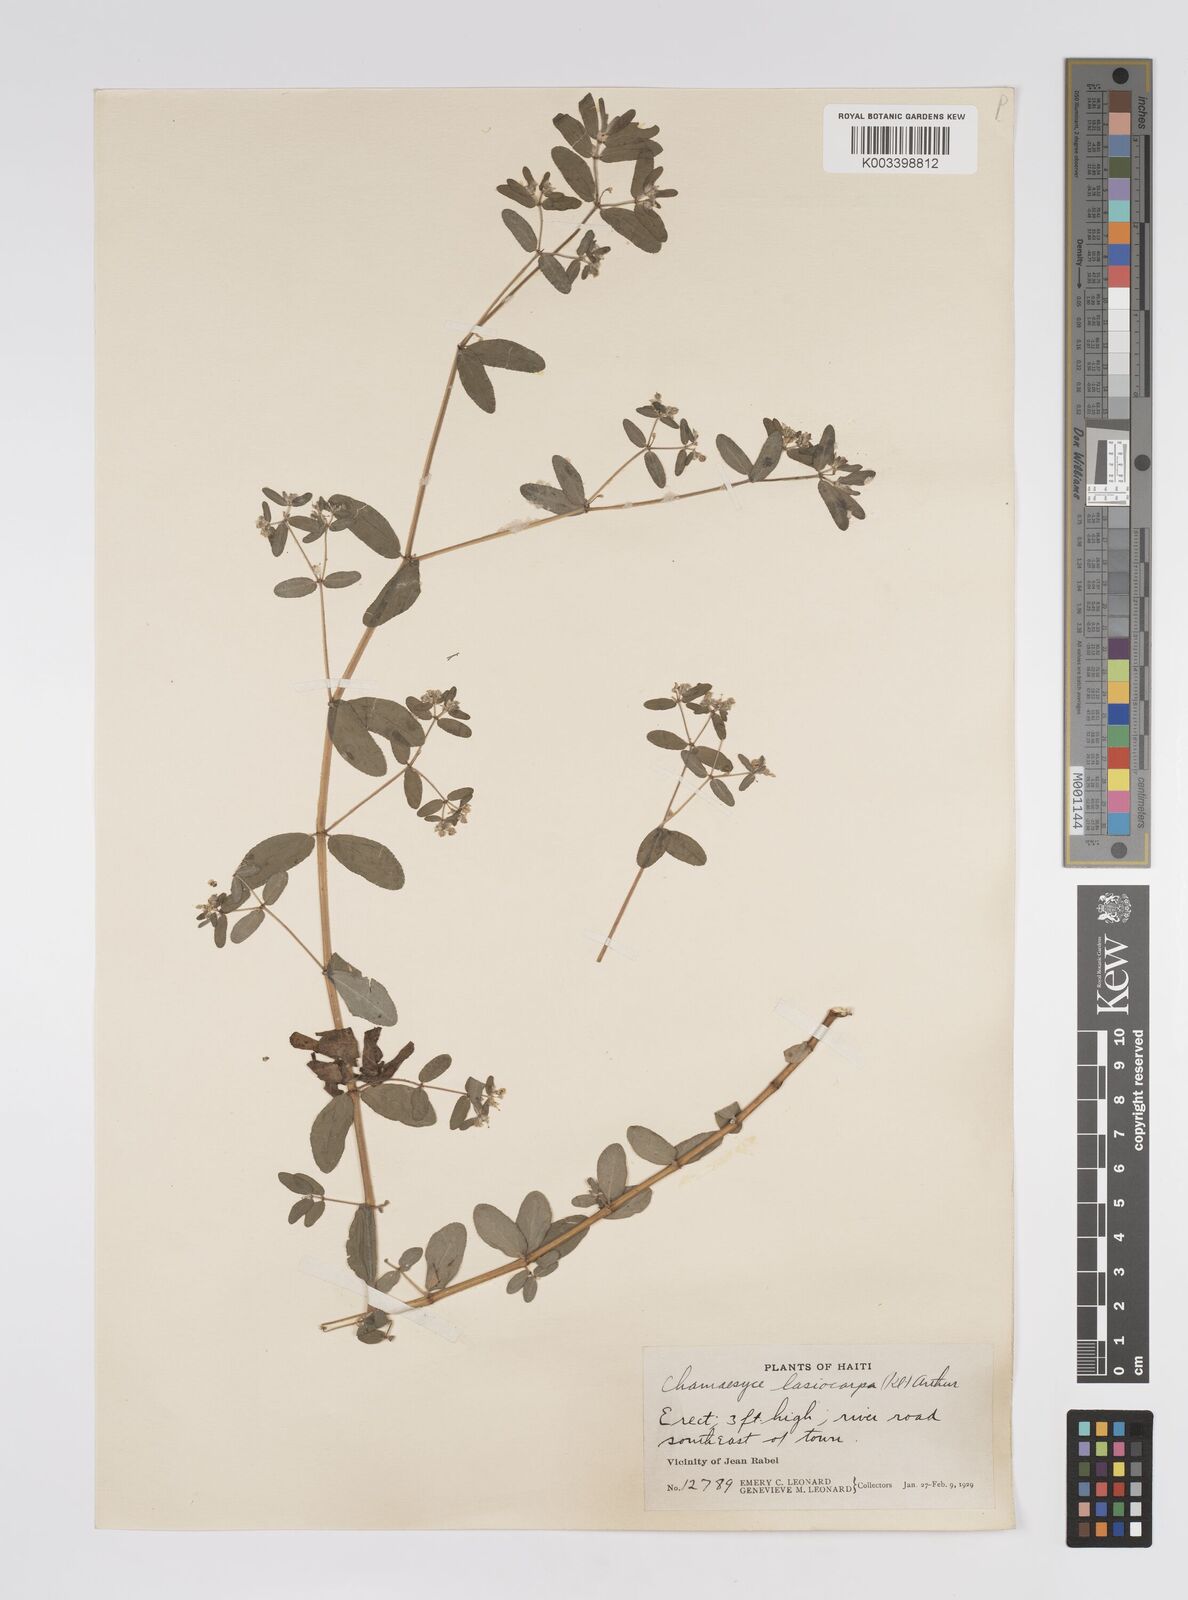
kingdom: Plantae
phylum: Tracheophyta
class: Magnoliopsida
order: Malpighiales
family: Euphorbiaceae
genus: Euphorbia
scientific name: Euphorbia lasiocarpa
